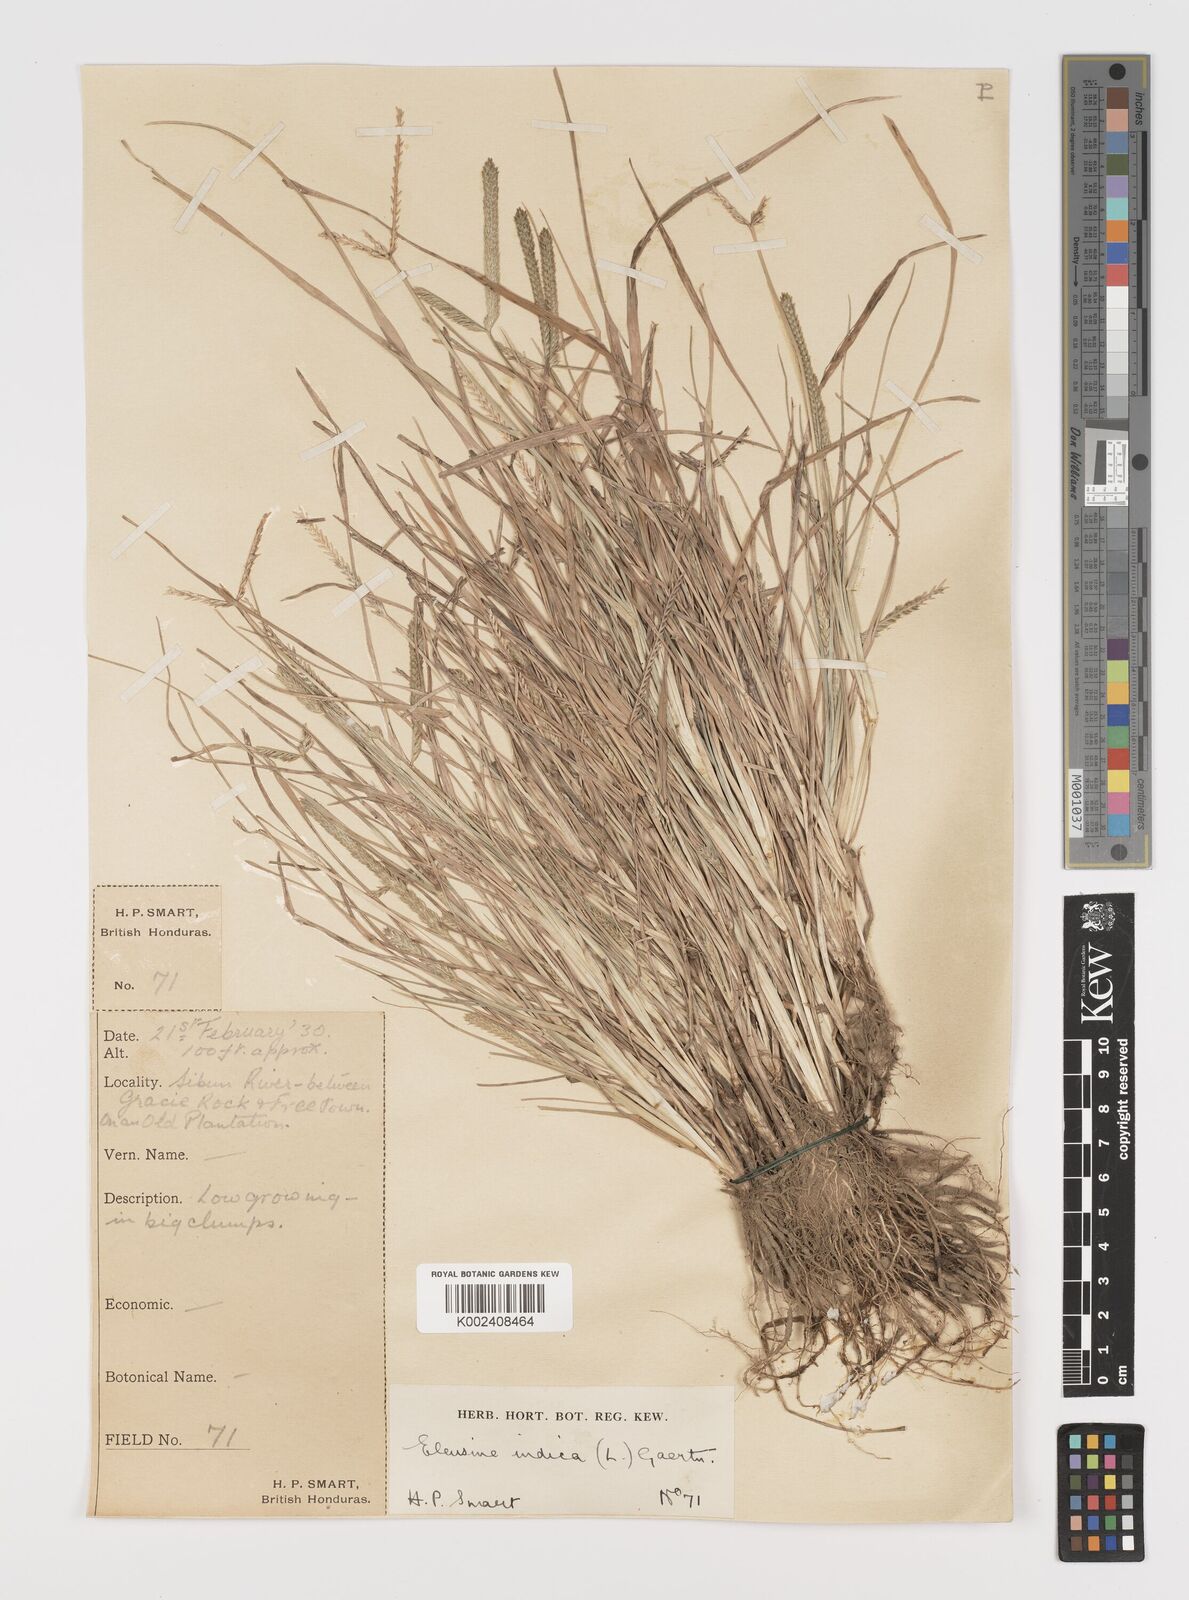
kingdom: Plantae
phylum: Tracheophyta
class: Liliopsida
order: Poales
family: Poaceae
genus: Eleusine
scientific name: Eleusine indica
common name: Yard-grass
